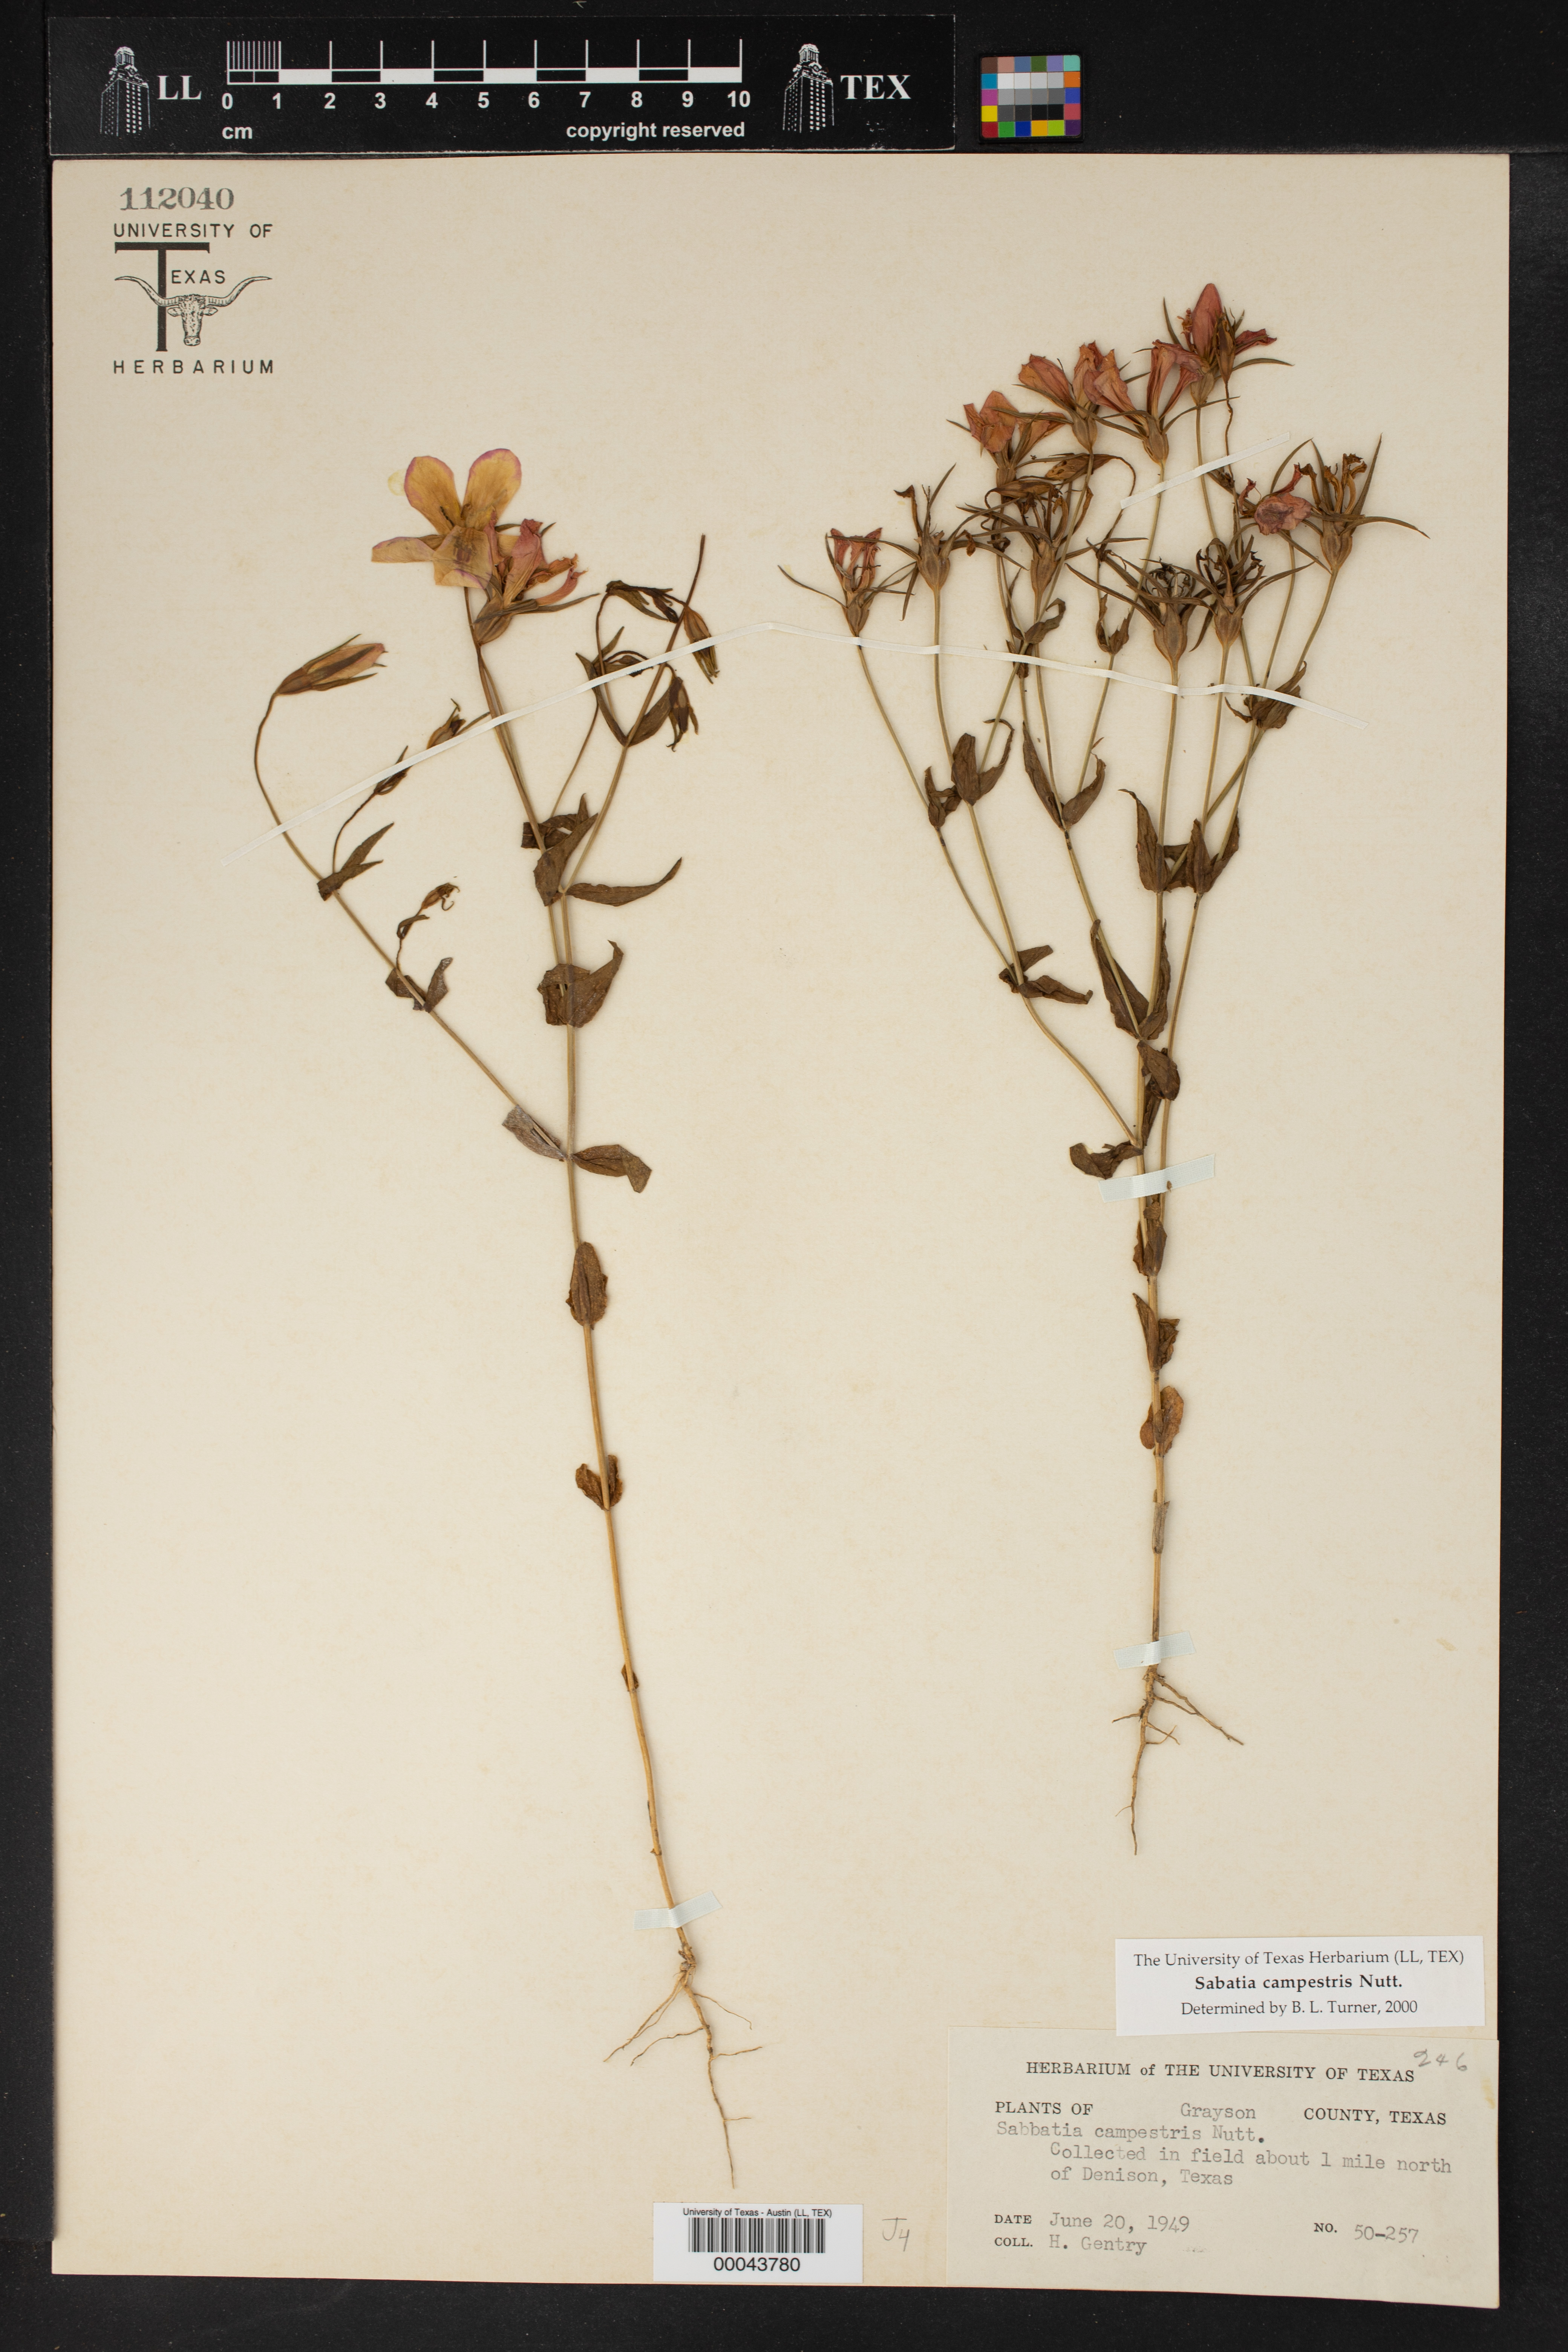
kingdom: Plantae
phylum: Tracheophyta
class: Magnoliopsida
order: Gentianales
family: Gentianaceae
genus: Sabatia
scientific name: Sabatia campestris
